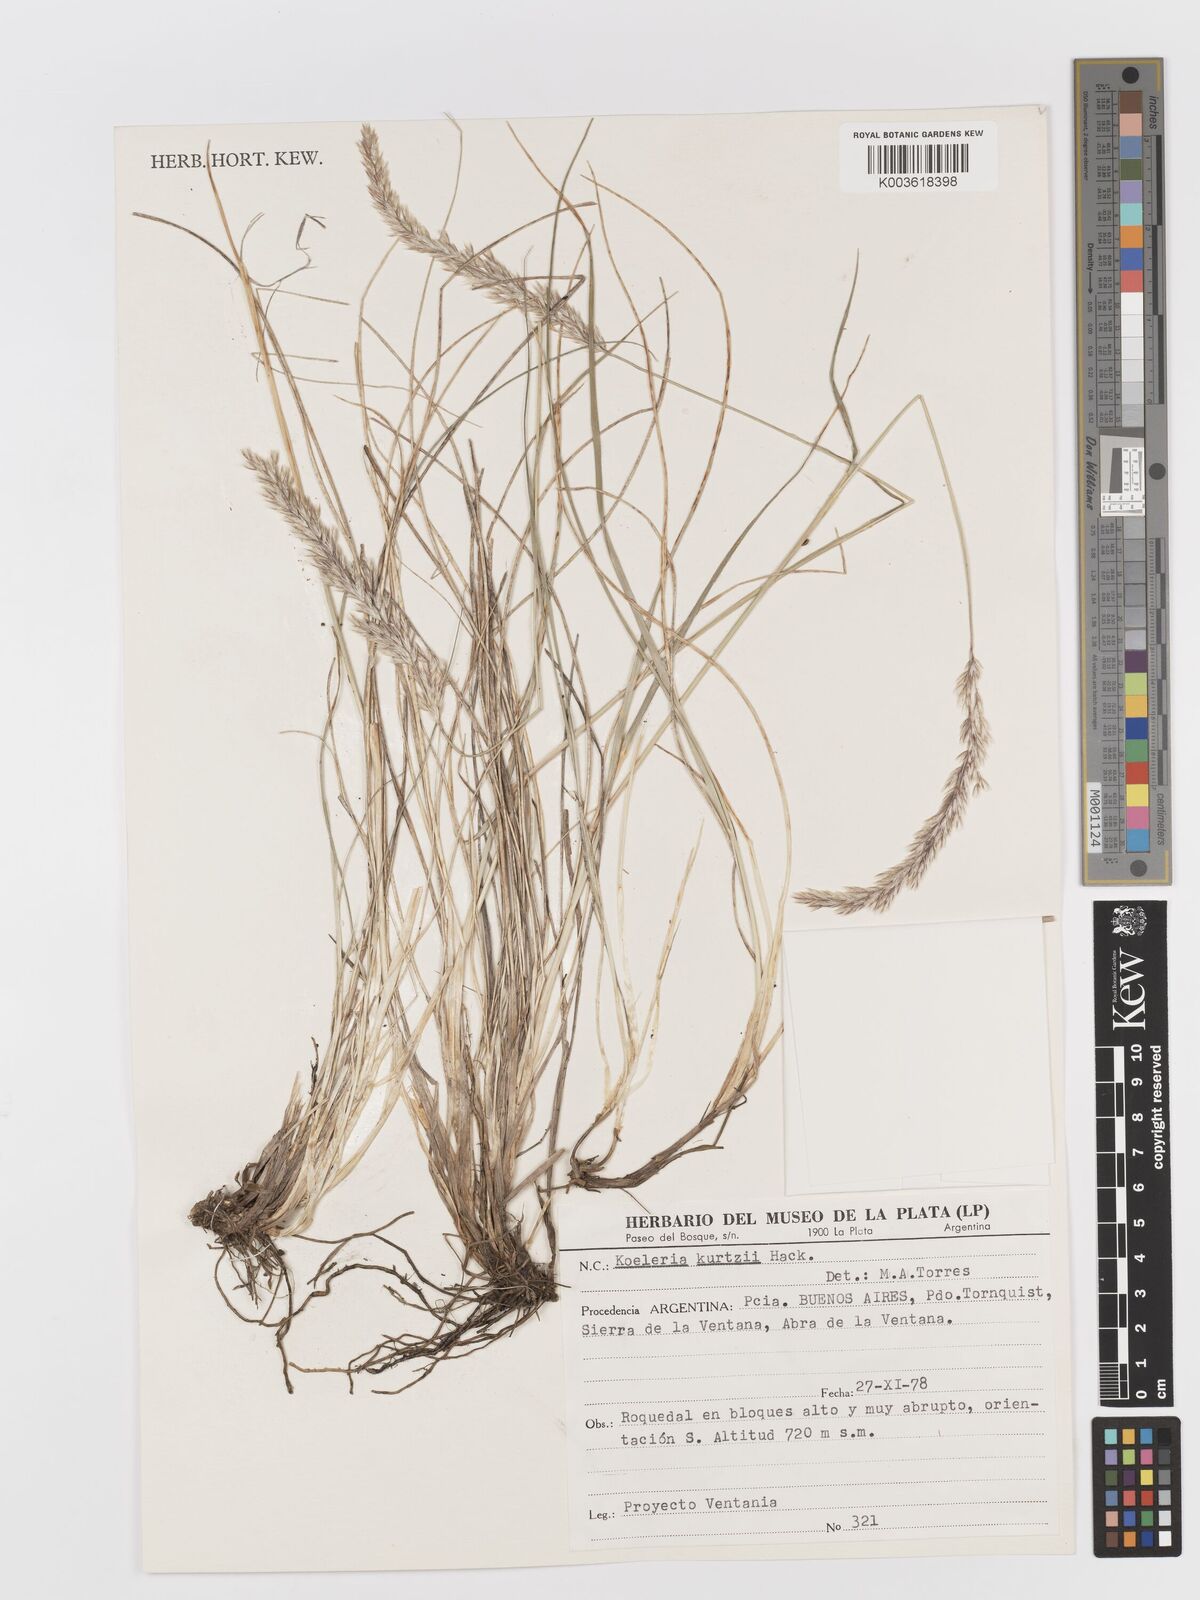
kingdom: Plantae
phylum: Tracheophyta
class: Liliopsida
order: Poales
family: Poaceae
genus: Koeleria
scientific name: Koeleria kurtzii
